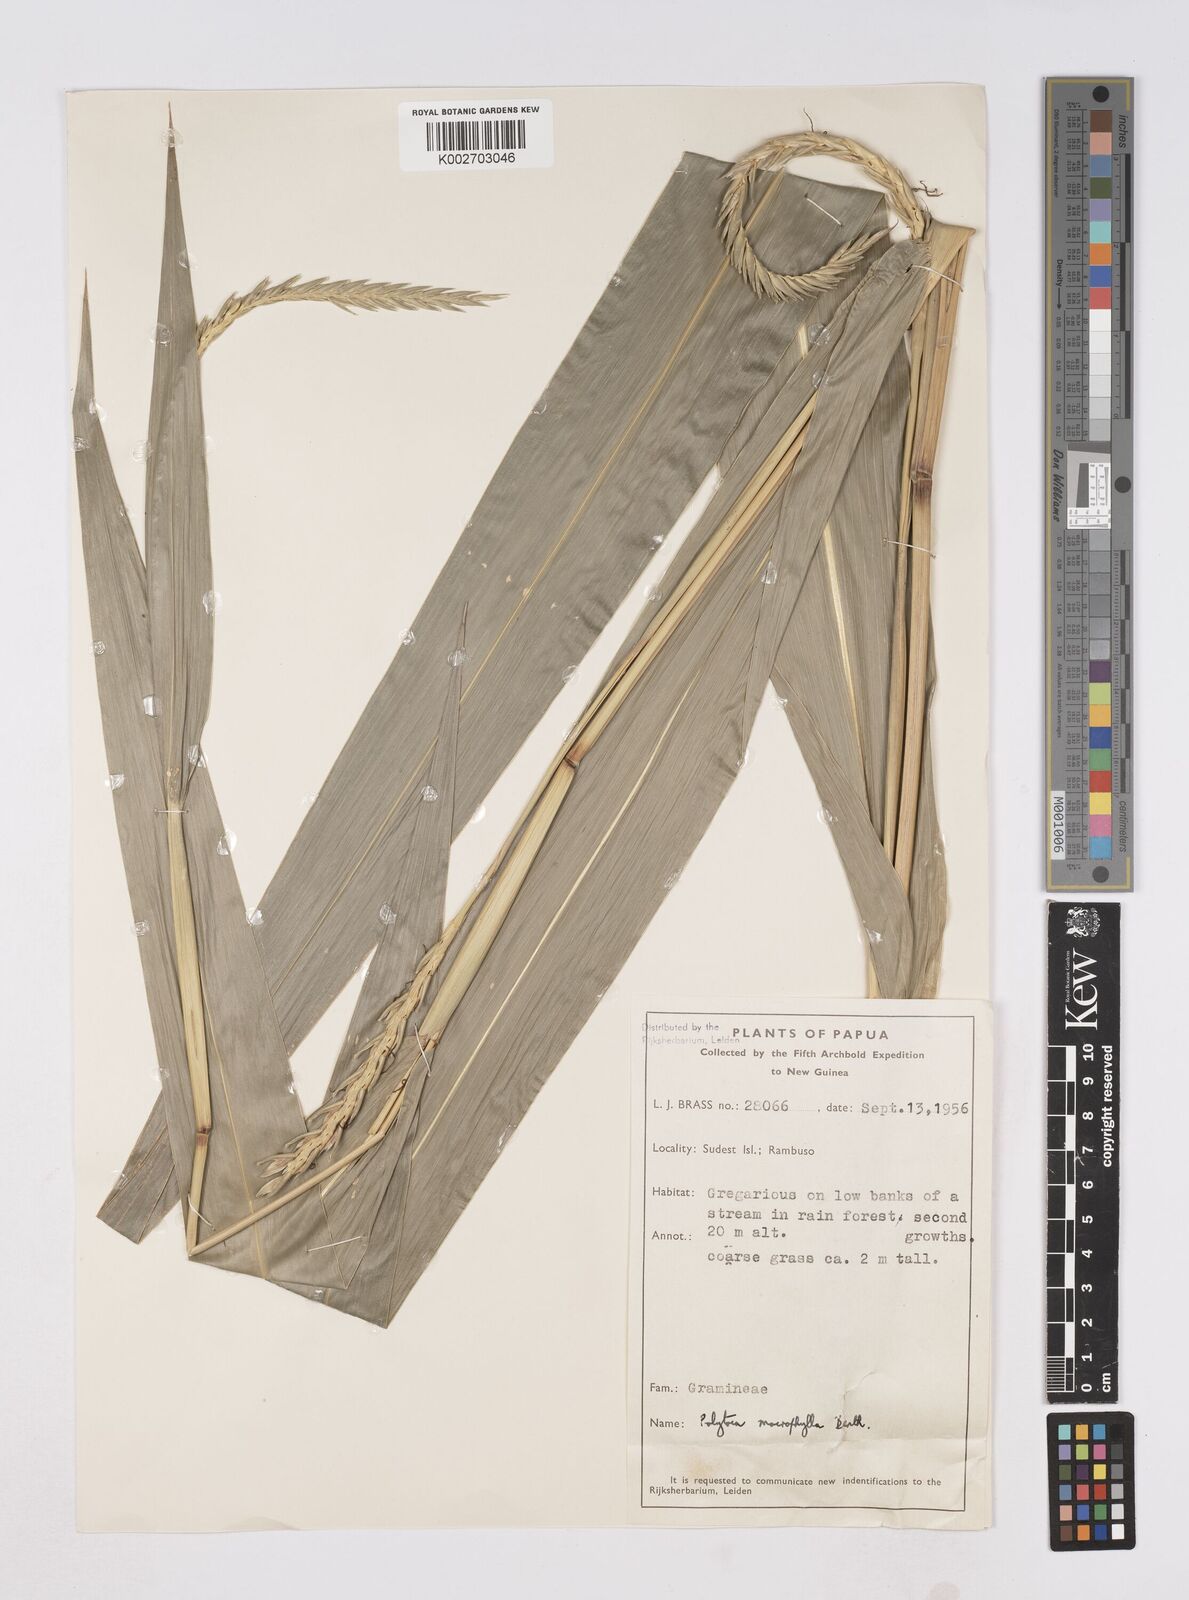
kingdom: Plantae
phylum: Tracheophyta
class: Liliopsida
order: Poales
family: Poaceae
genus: Polytoca
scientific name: Polytoca macrophylla
